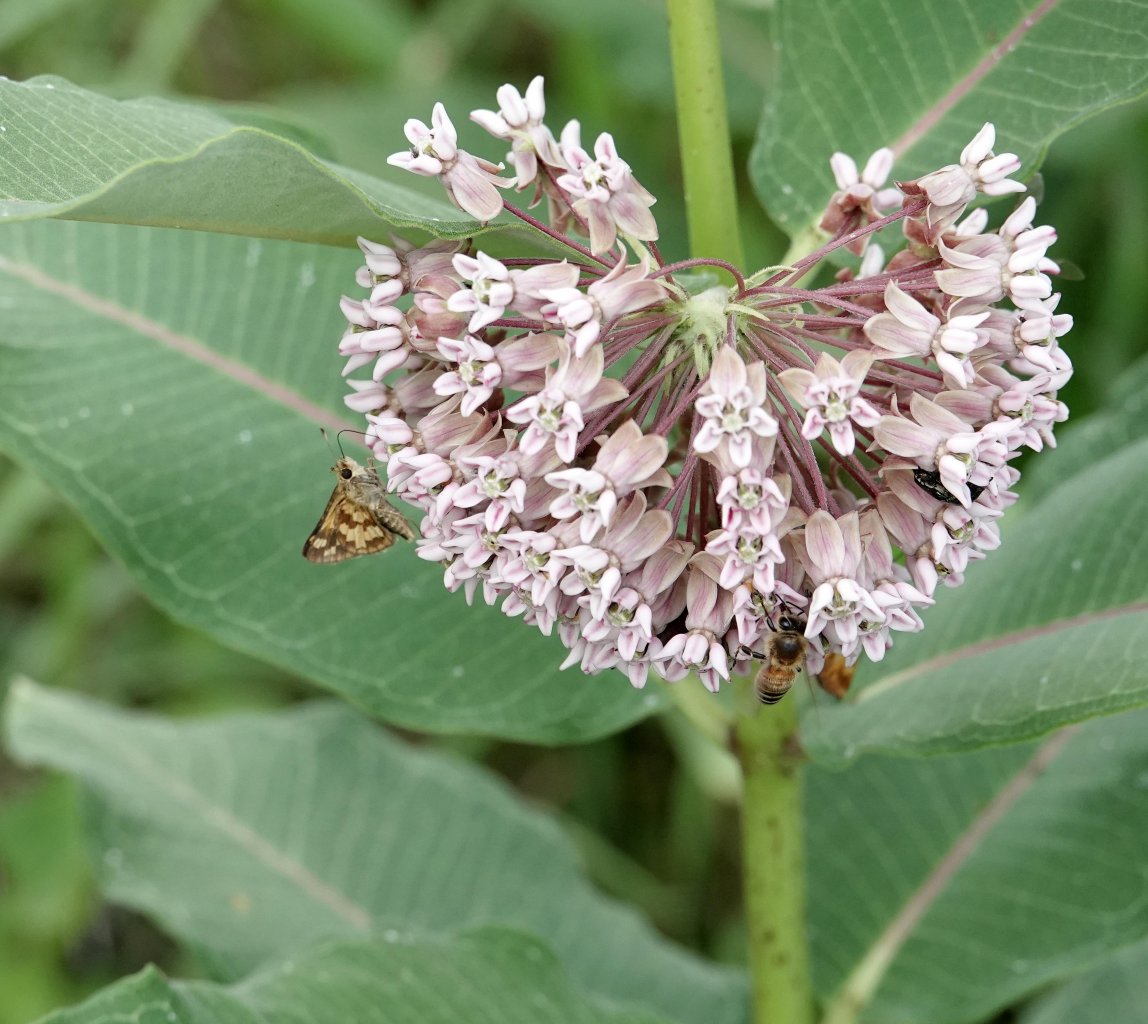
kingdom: Animalia
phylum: Arthropoda
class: Insecta
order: Lepidoptera
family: Hesperiidae
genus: Polites
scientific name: Polites coras
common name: Peck's Skipper
